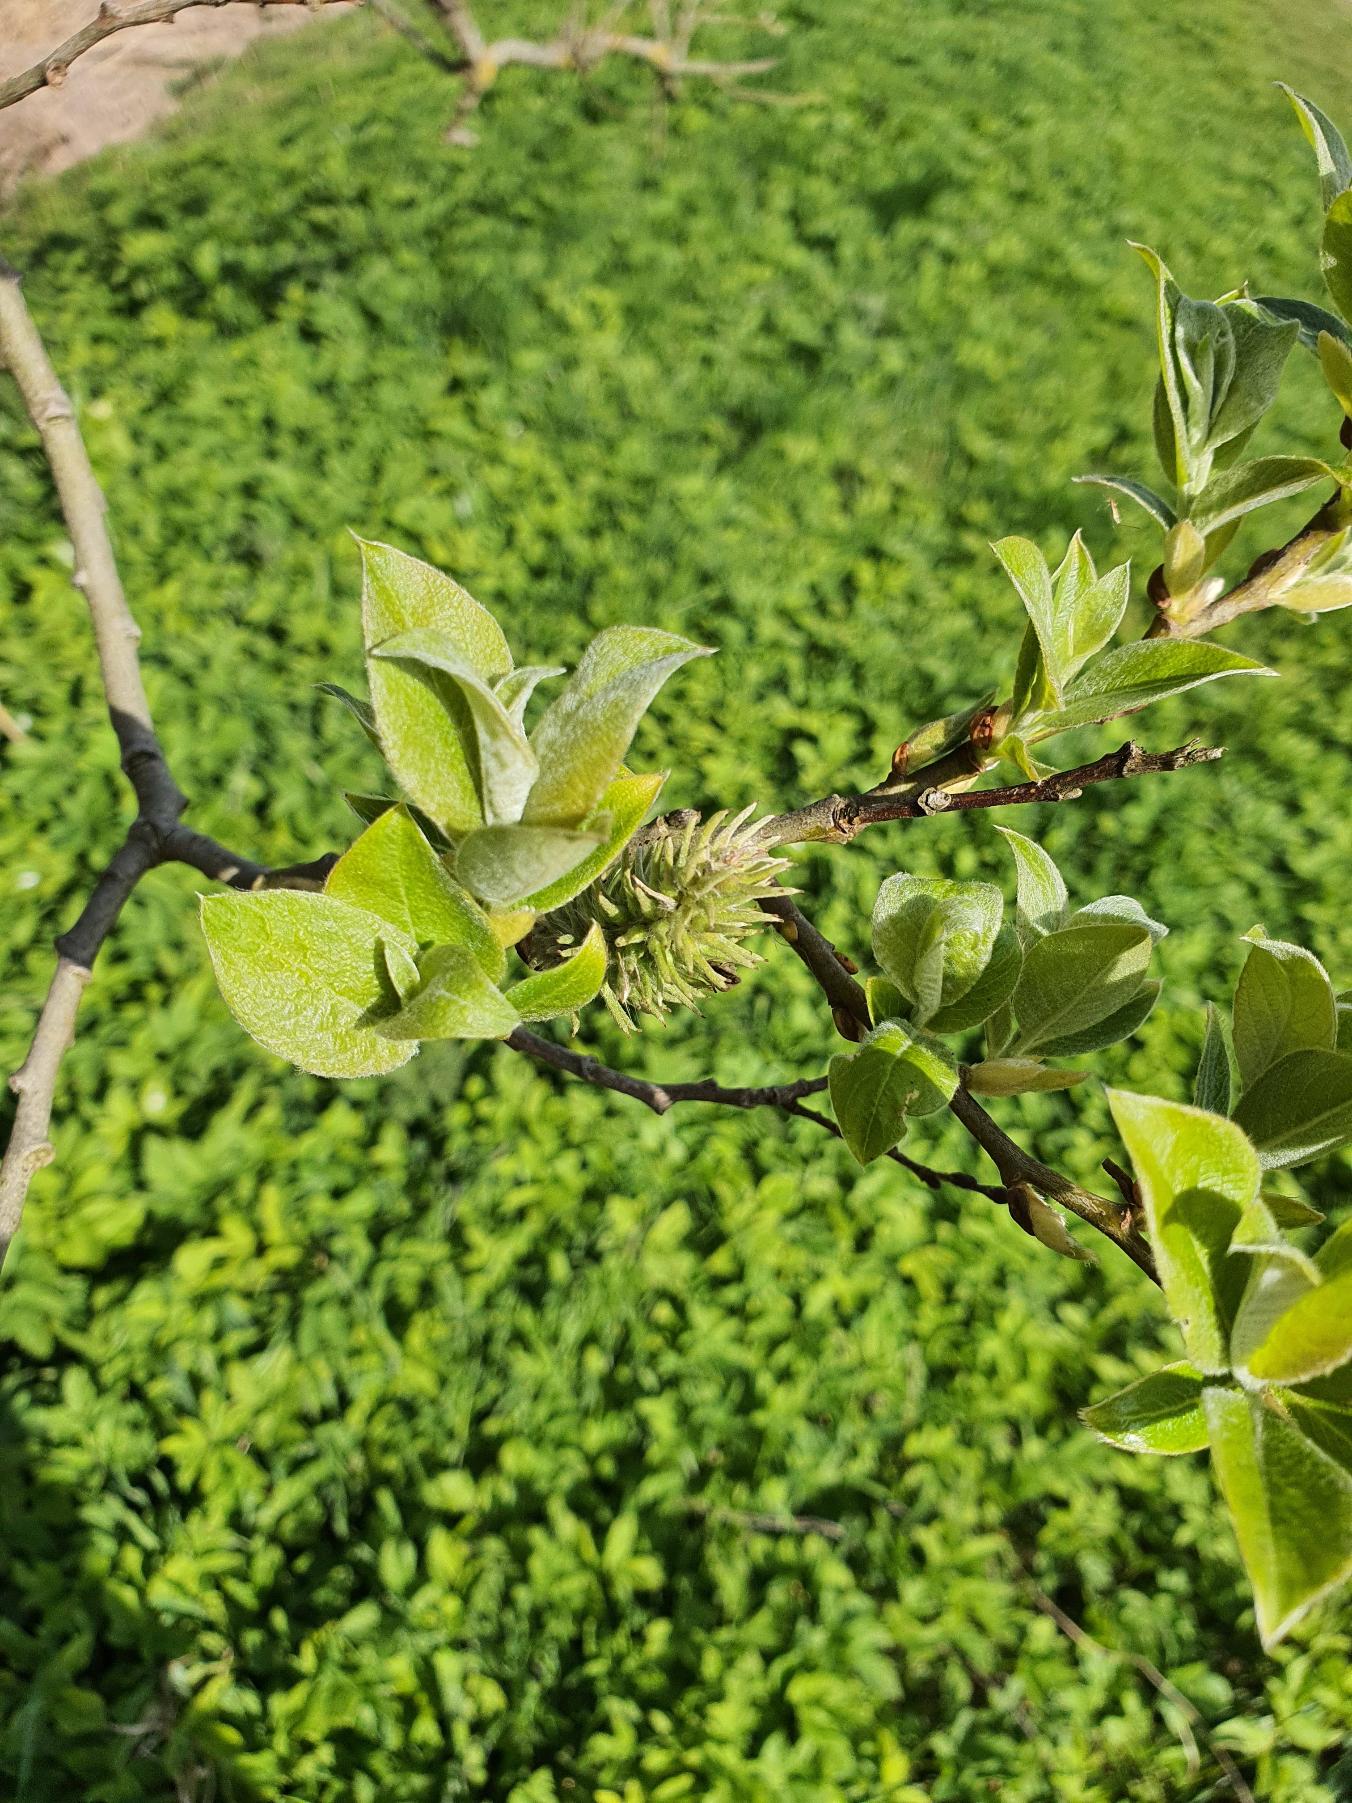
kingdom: Plantae
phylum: Tracheophyta
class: Magnoliopsida
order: Malpighiales
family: Salicaceae
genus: Salix
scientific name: Salix caprea
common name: Selje-pil
